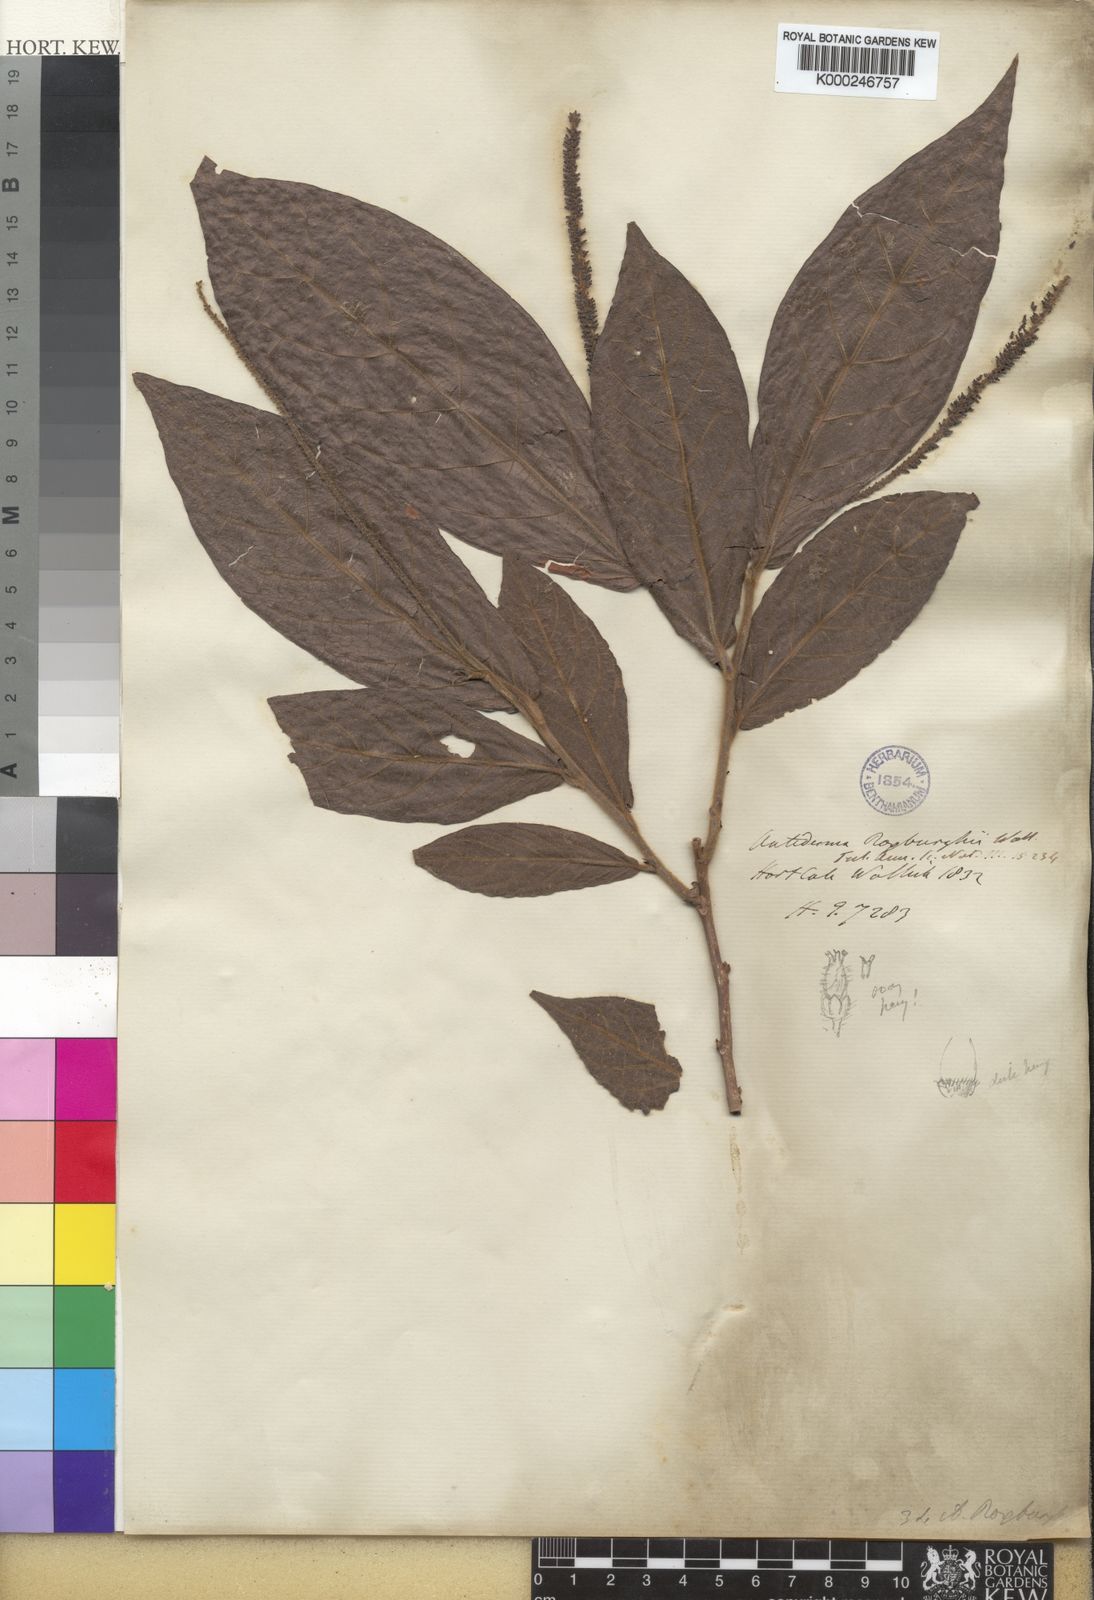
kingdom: Plantae
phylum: Tracheophyta
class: Magnoliopsida
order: Malpighiales
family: Phyllanthaceae
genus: Antidesma
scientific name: Antidesma
